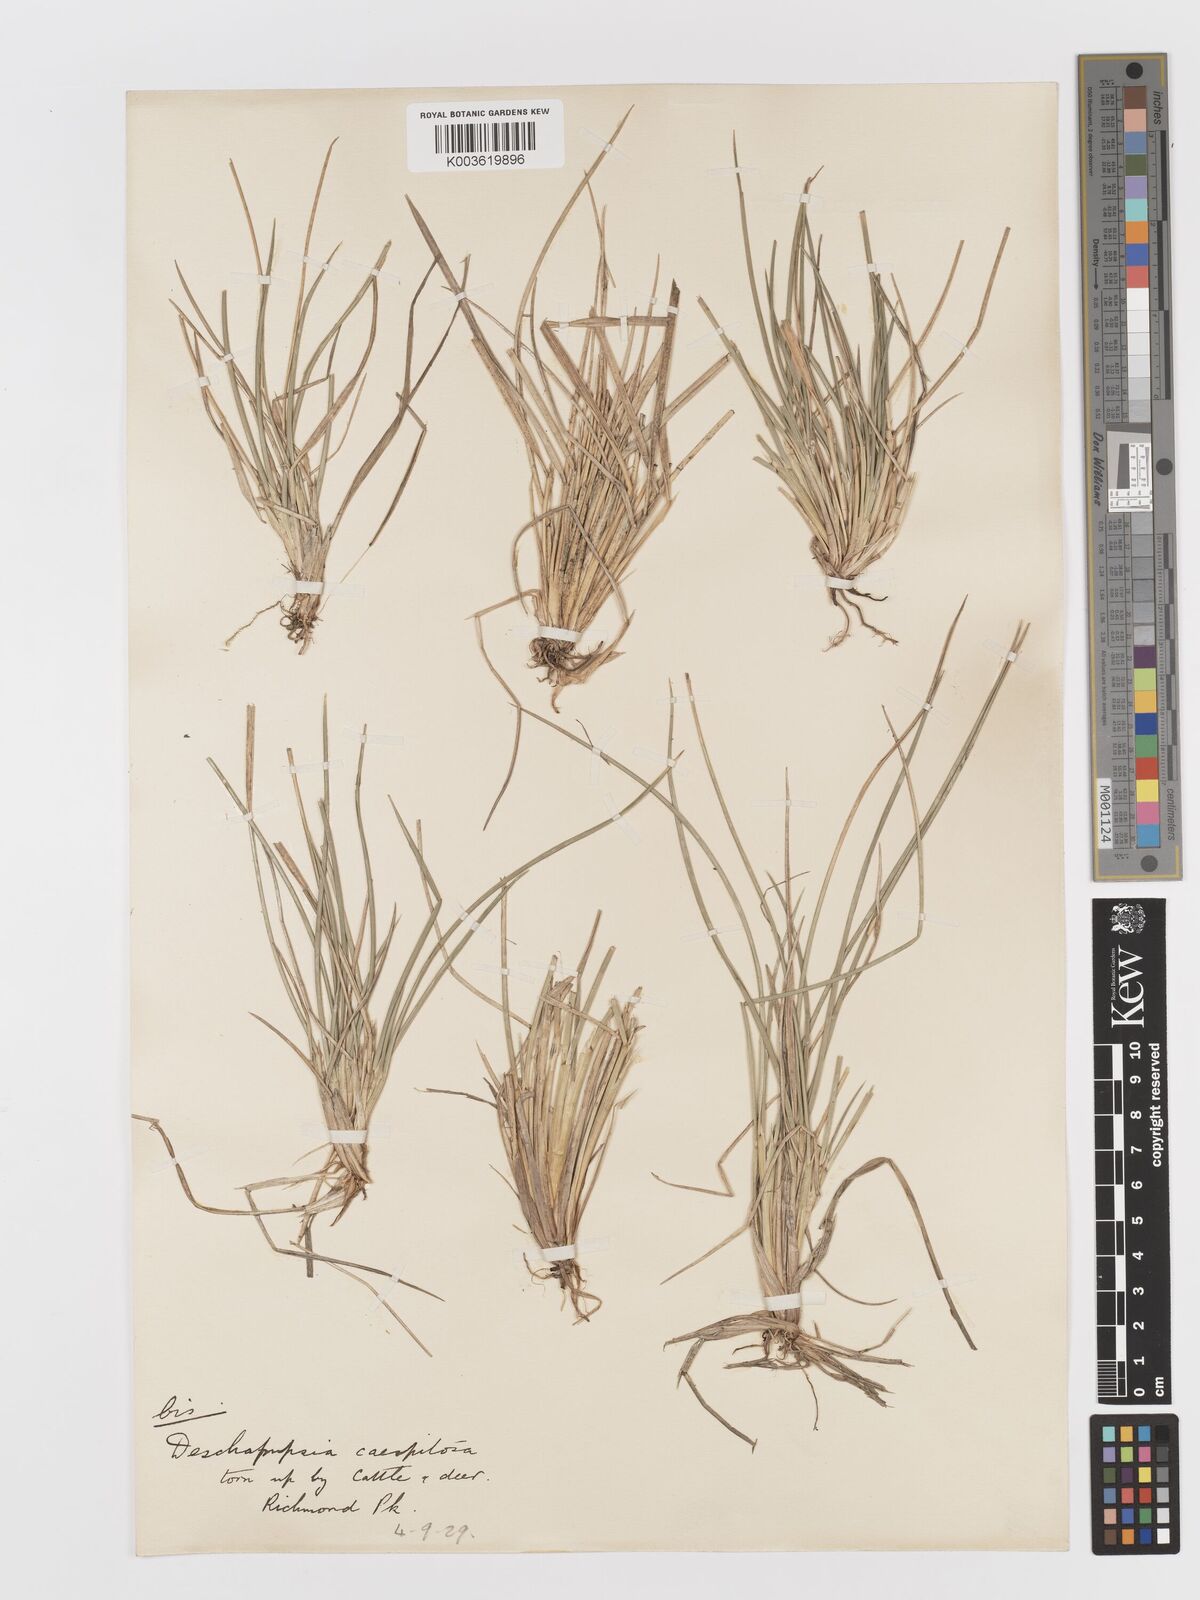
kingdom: Plantae
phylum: Tracheophyta
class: Liliopsida
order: Poales
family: Poaceae
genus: Deschampsia
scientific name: Deschampsia
